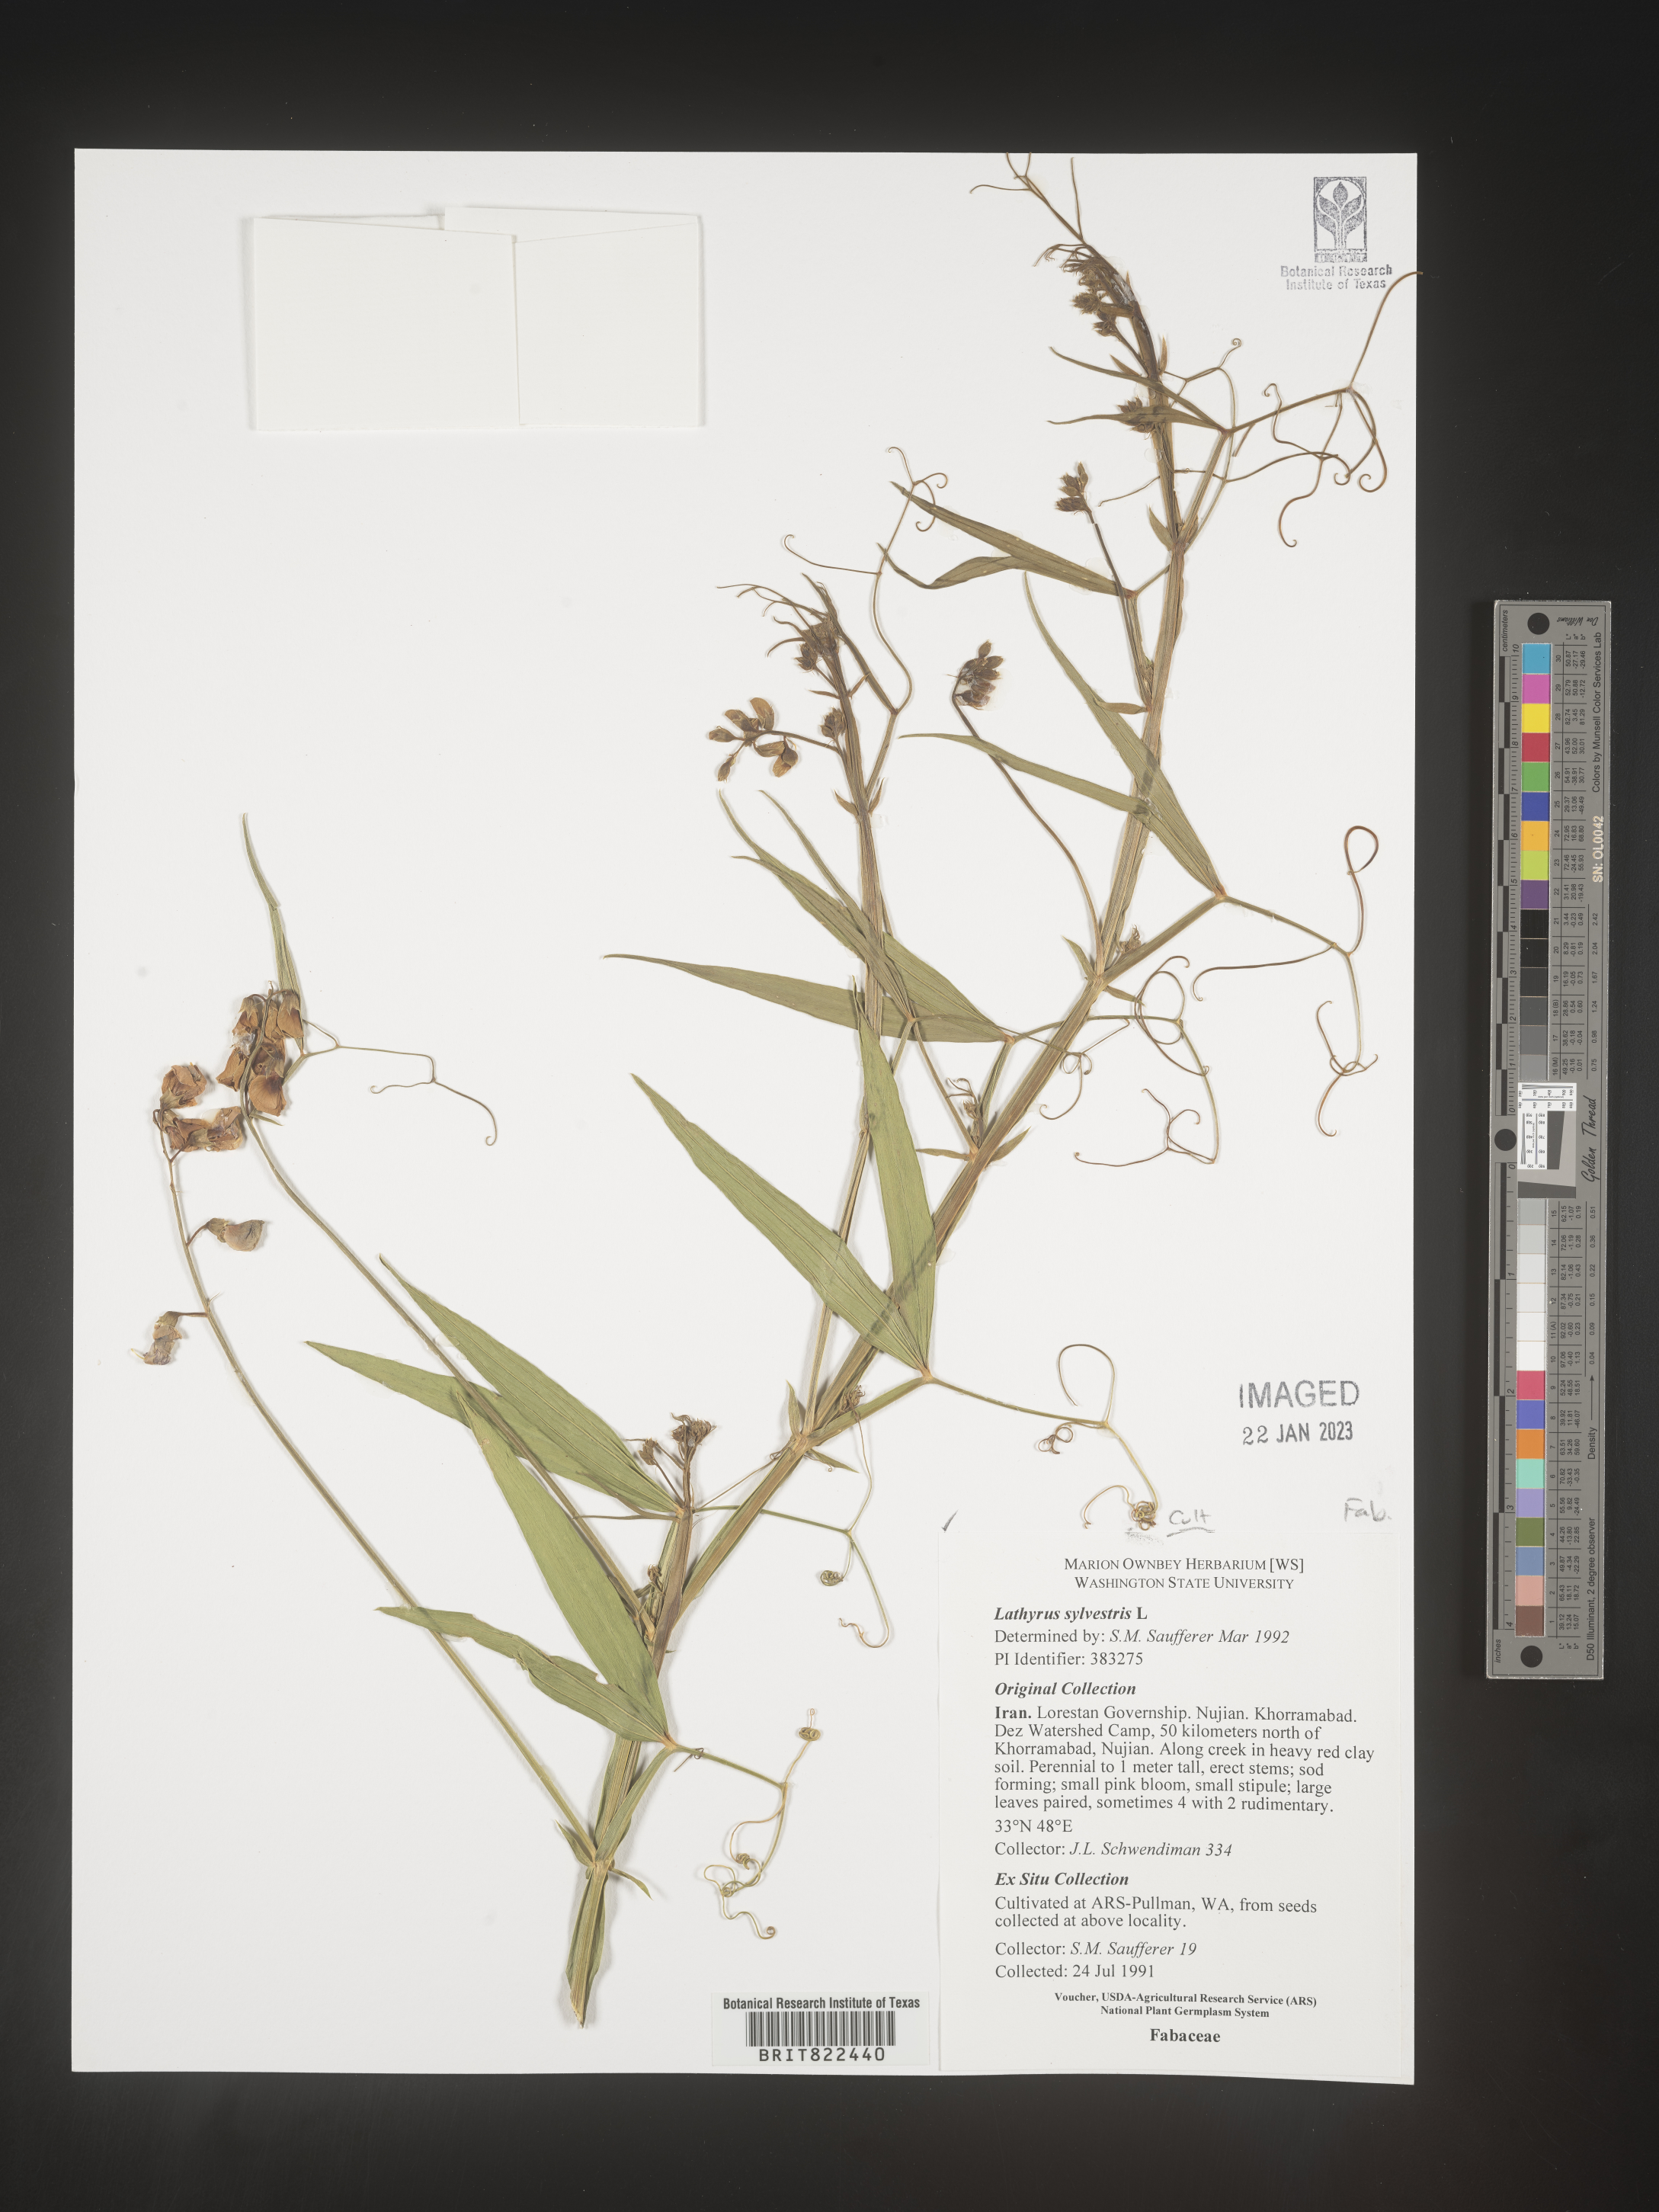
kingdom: Plantae
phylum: Tracheophyta
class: Magnoliopsida
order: Fabales
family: Fabaceae
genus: Lathyrus
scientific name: Lathyrus
